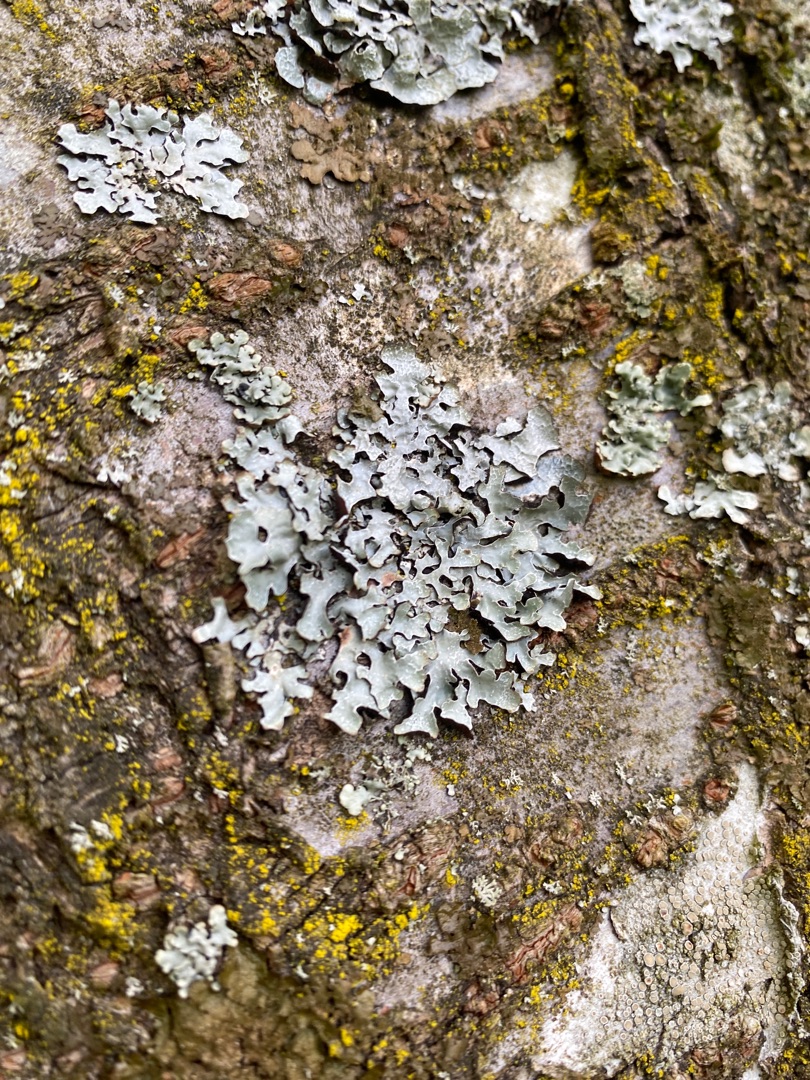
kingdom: Fungi
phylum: Ascomycota
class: Lecanoromycetes
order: Lecanorales
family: Parmeliaceae
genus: Parmelia
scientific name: Parmelia sulcata
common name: Rynket skållav
